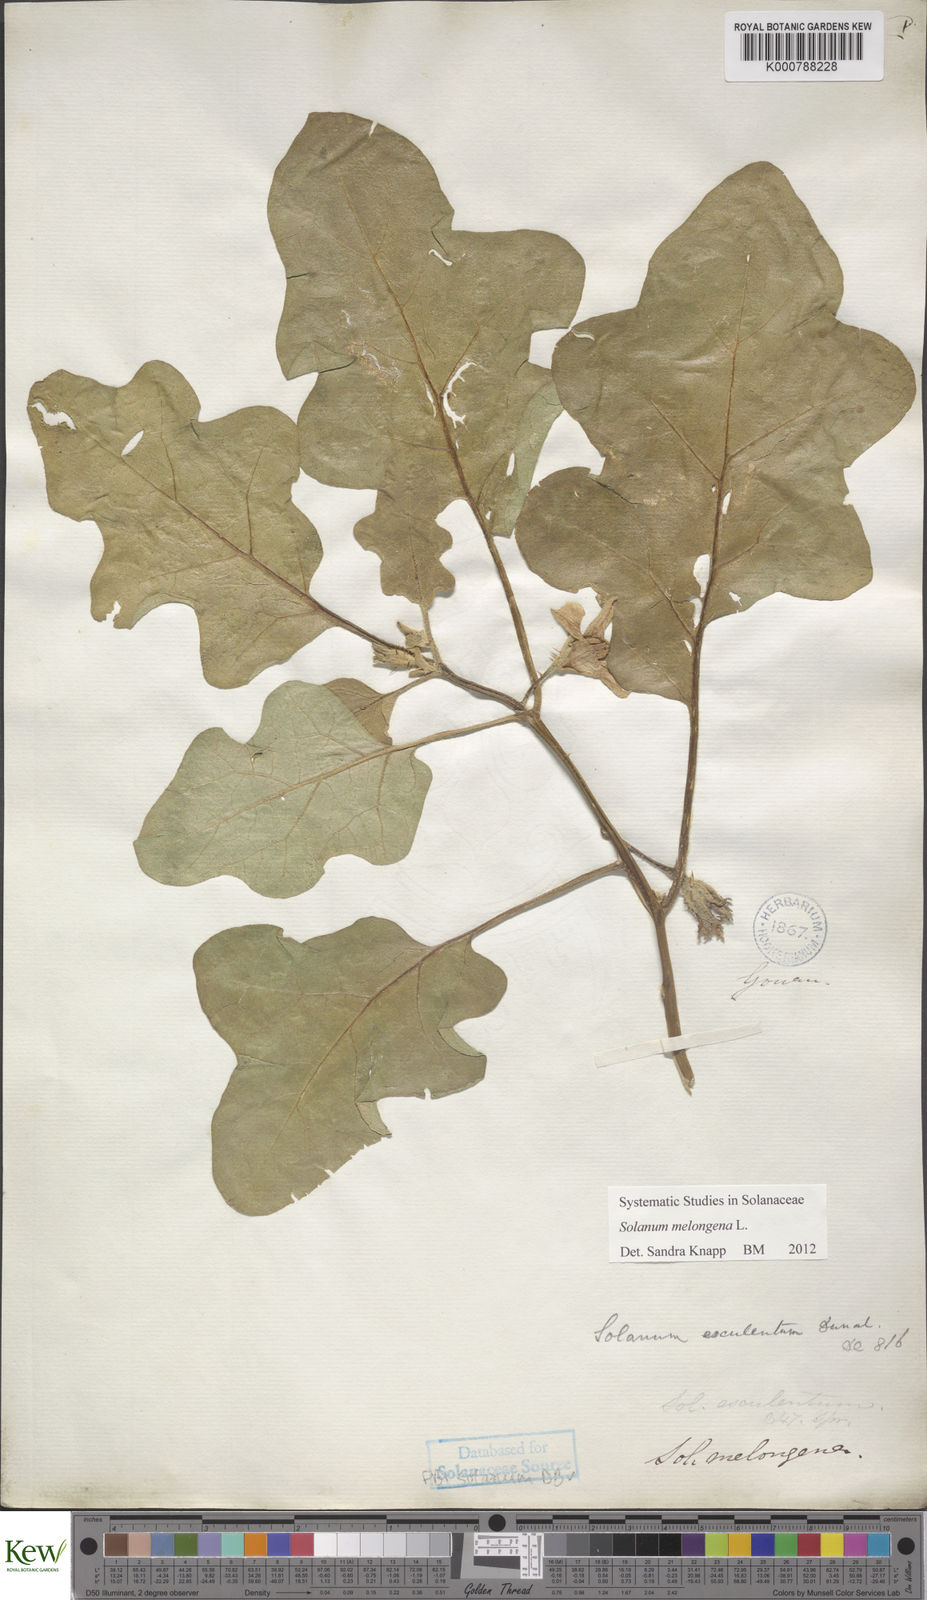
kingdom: Plantae
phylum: Tracheophyta
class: Magnoliopsida
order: Solanales
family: Solanaceae
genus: Solanum
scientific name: Solanum melongena
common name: Eggplant
